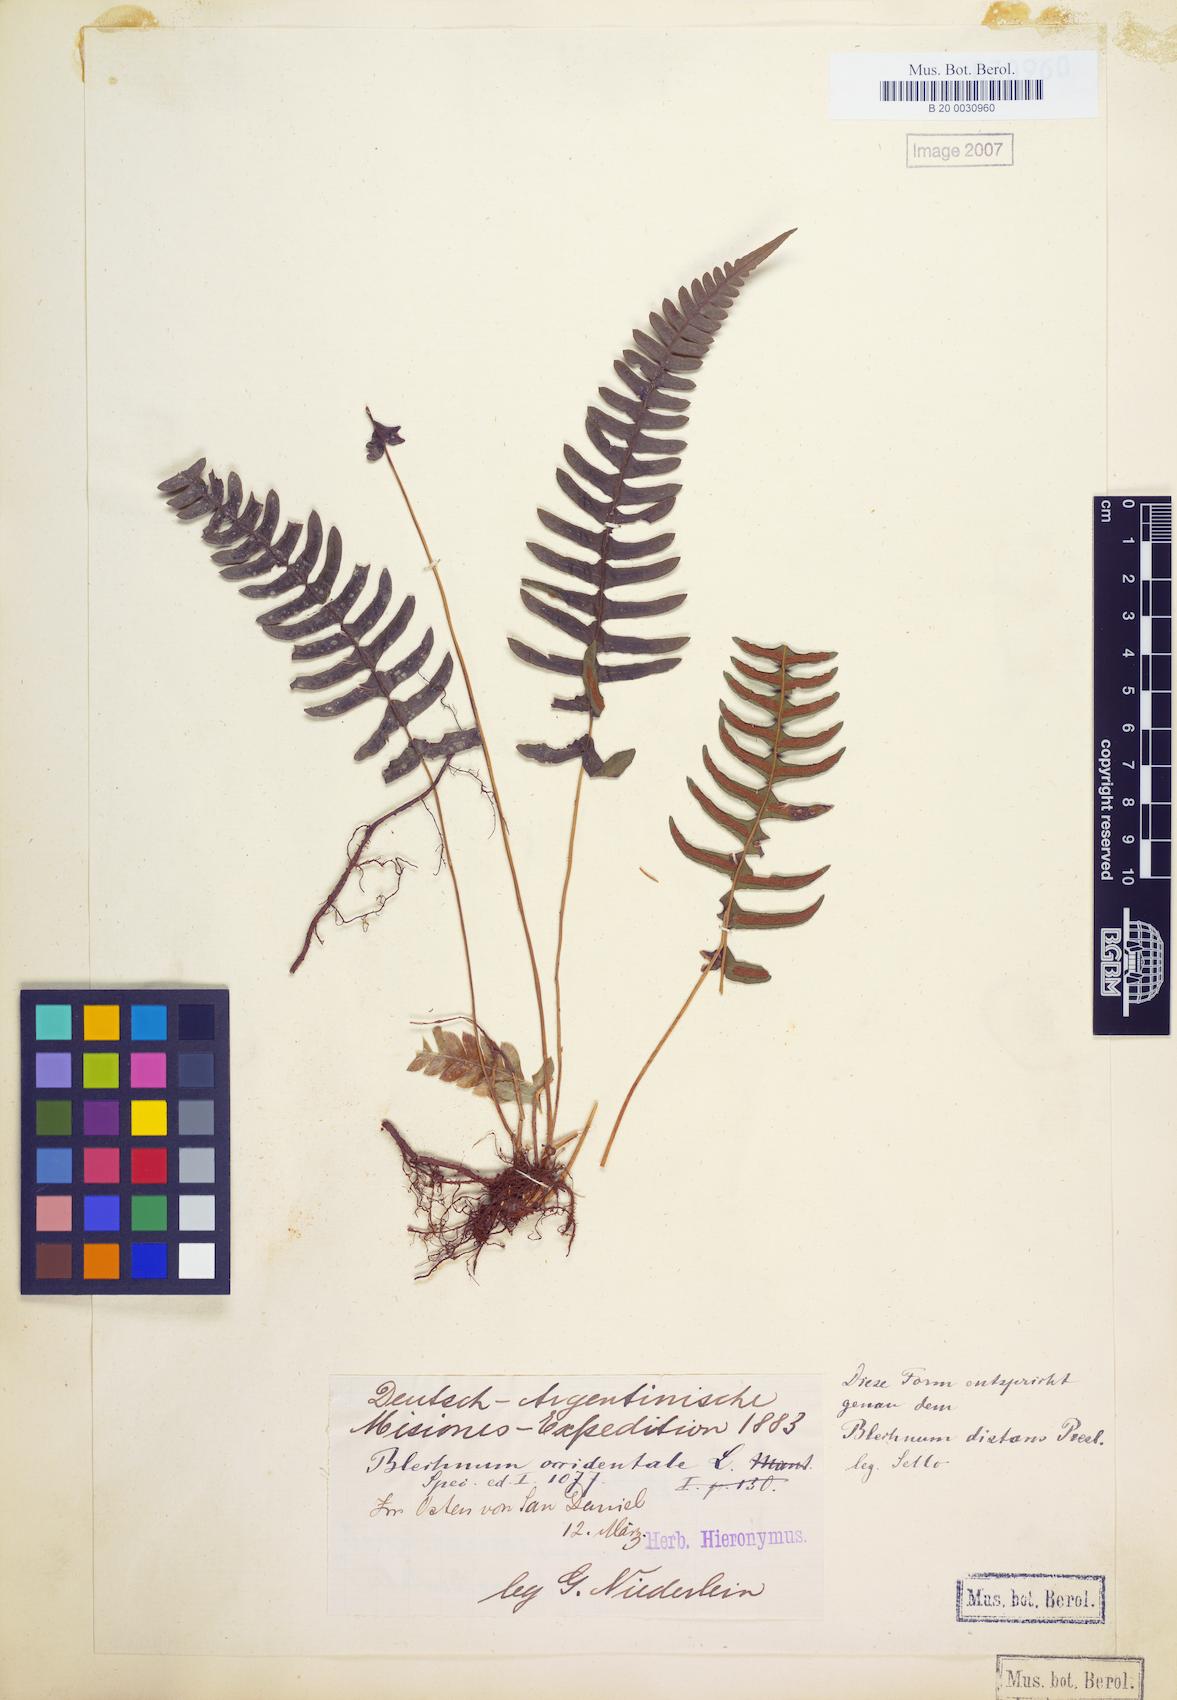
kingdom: Plantae
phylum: Tracheophyta
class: Polypodiopsida
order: Polypodiales
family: Blechnaceae
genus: Blechnum
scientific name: Blechnum laevigatum
